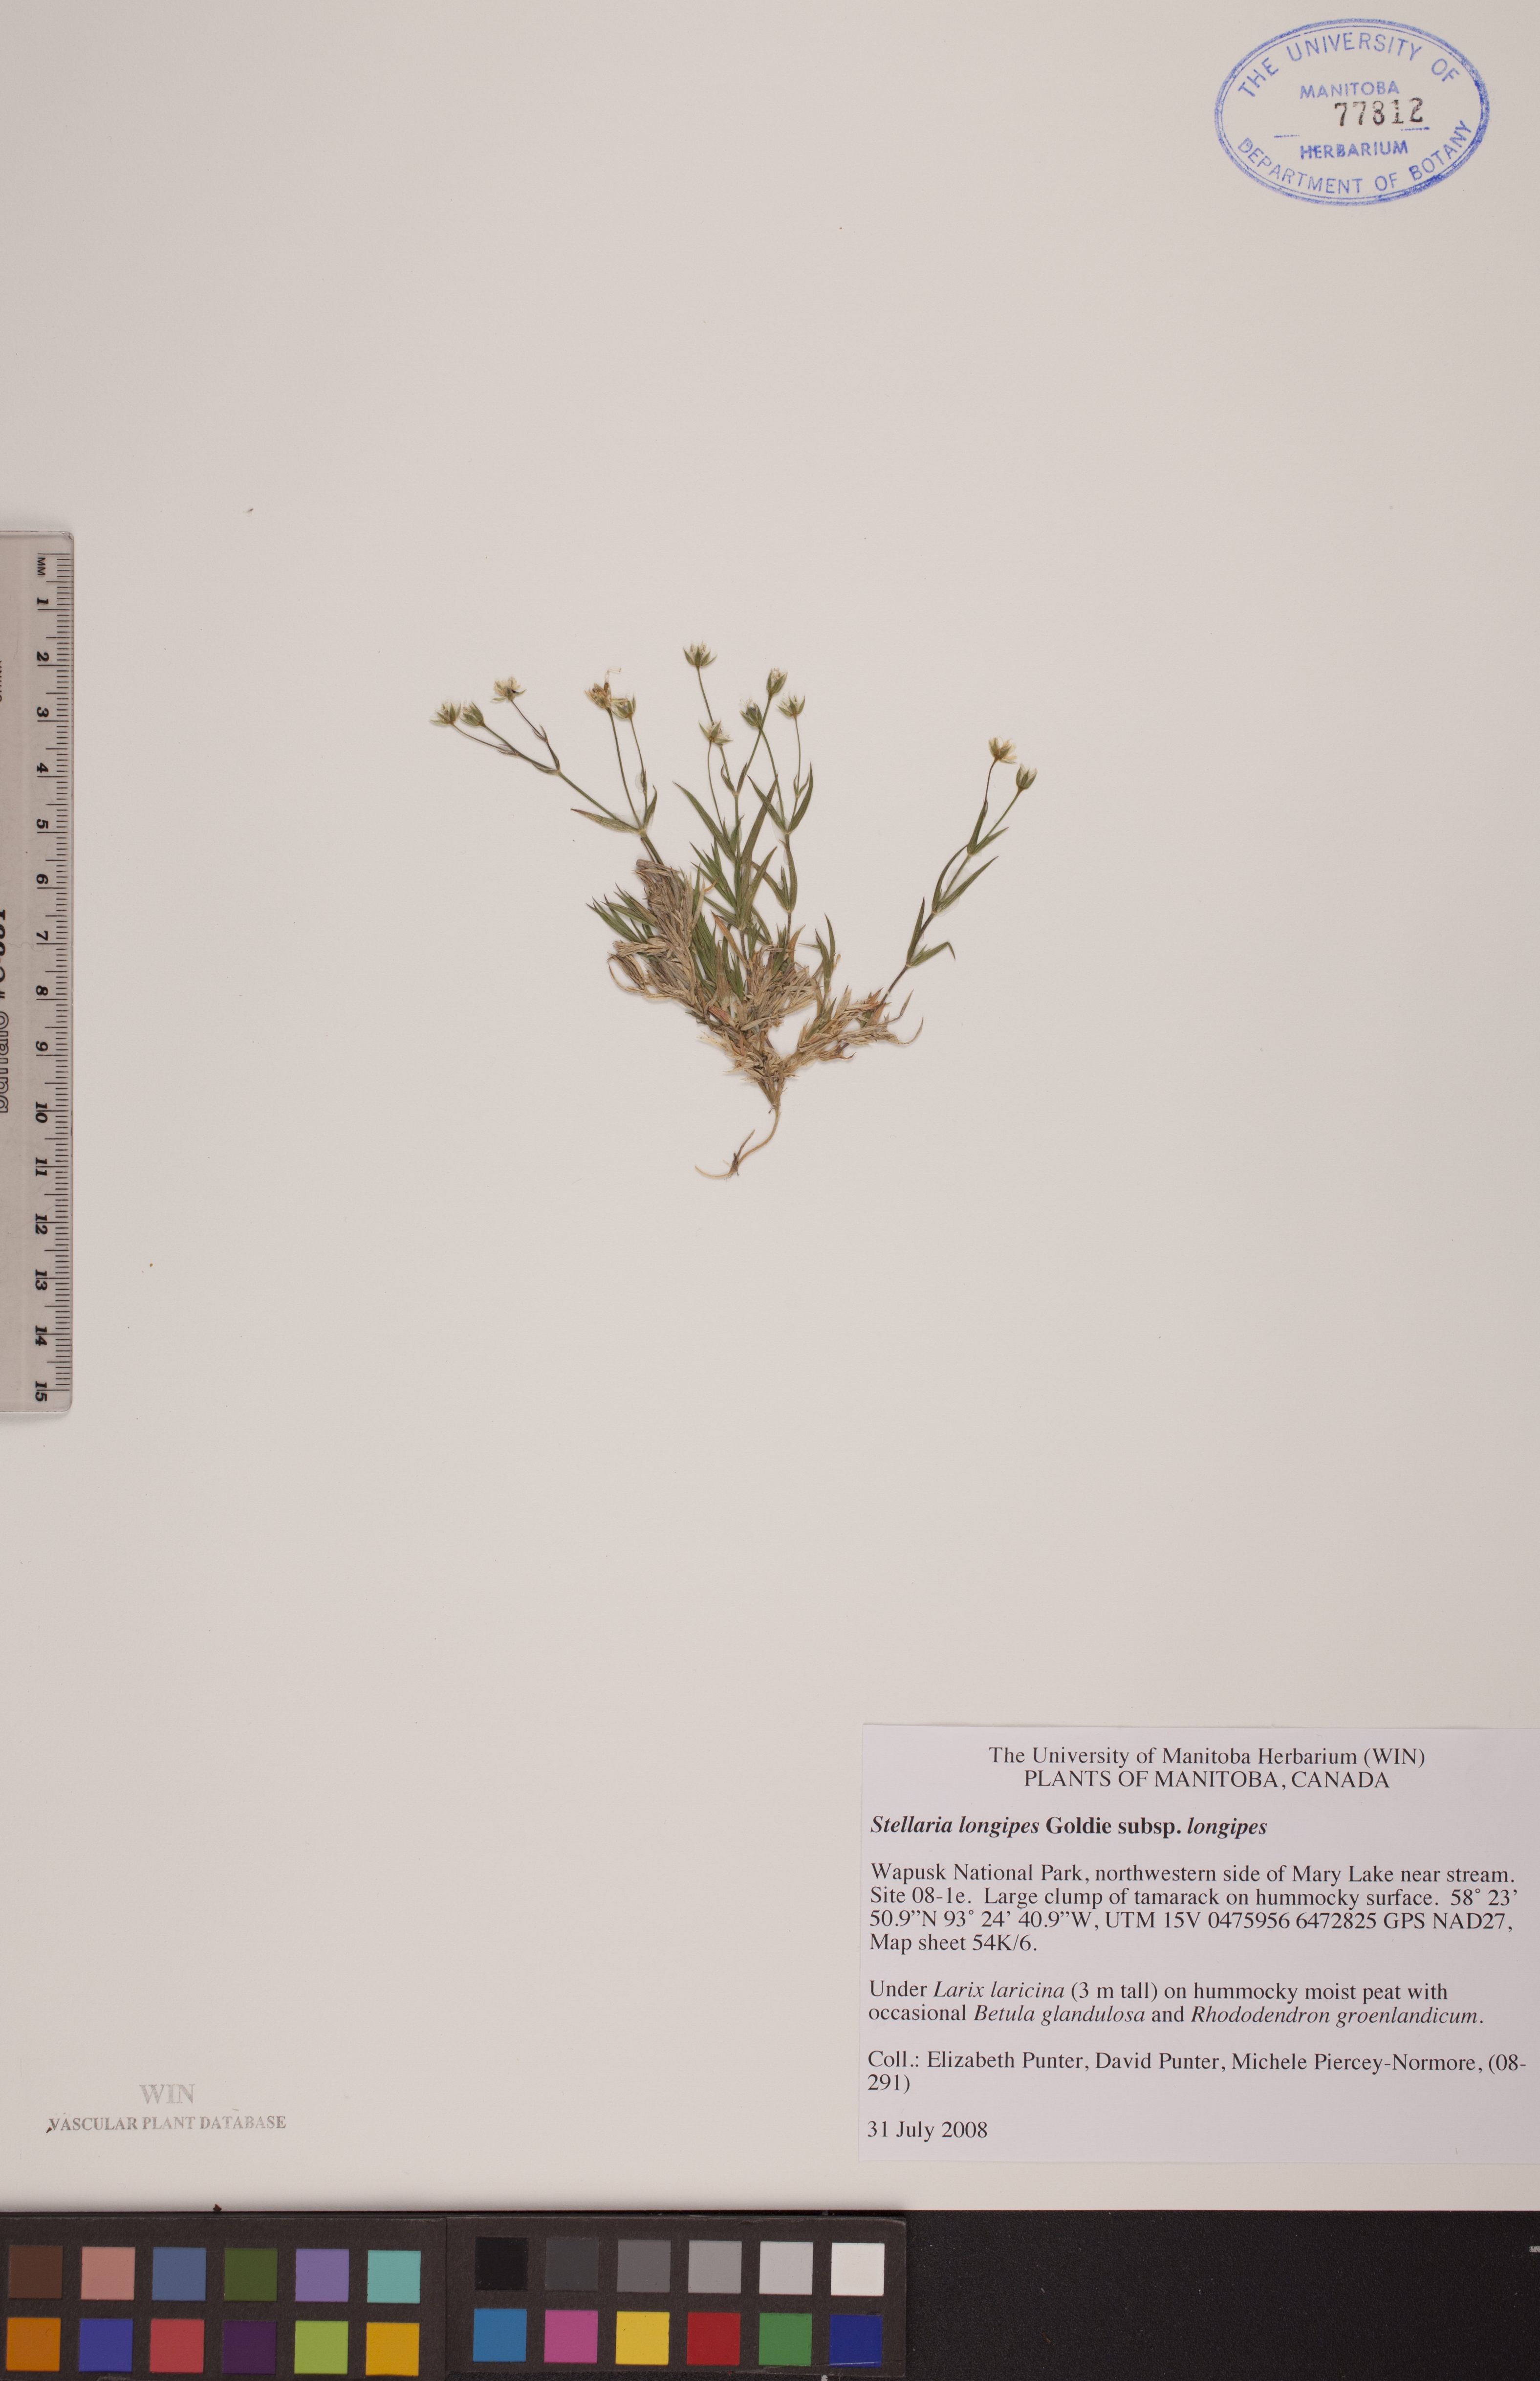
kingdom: Plantae
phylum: Tracheophyta
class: Magnoliopsida
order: Caryophyllales
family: Caryophyllaceae
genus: Stellaria
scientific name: Stellaria longipes
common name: Goldie's starwort
